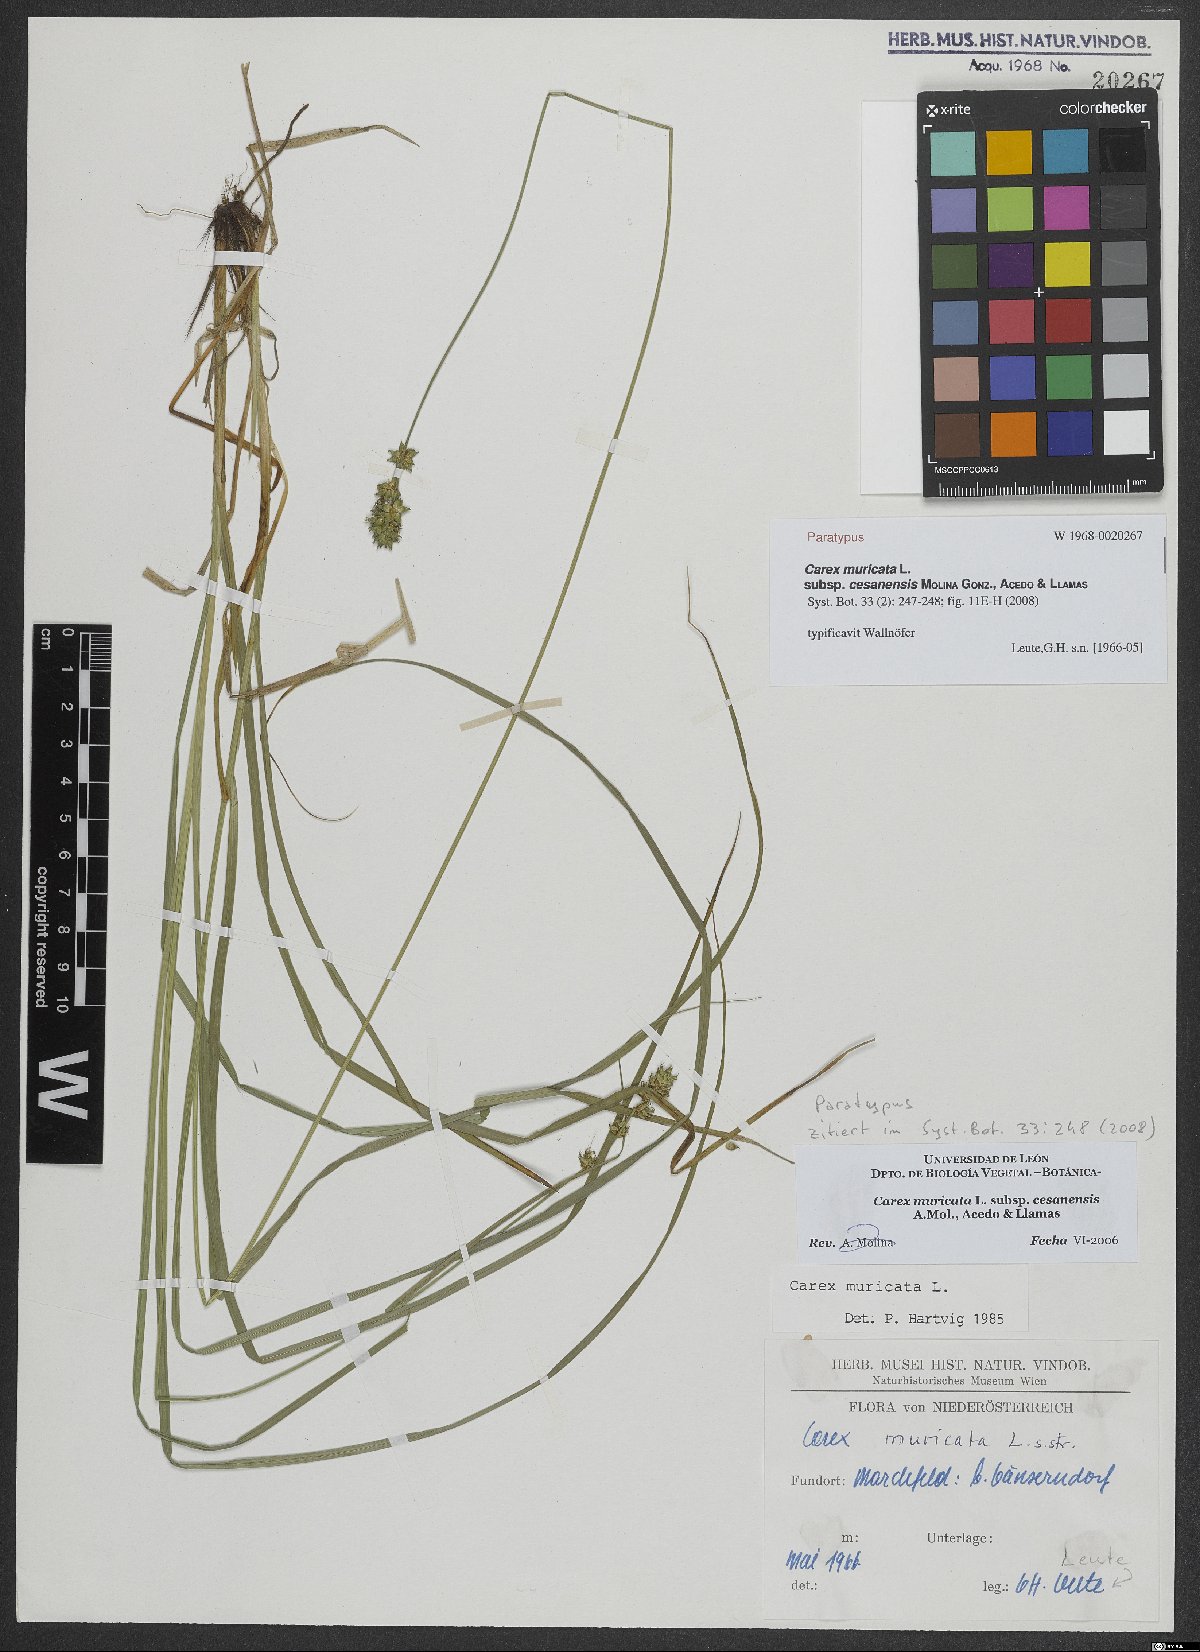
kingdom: Plantae
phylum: Tracheophyta
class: Liliopsida
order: Poales
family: Cyperaceae
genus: Carex
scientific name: Carex muricata
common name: Rough sedge
